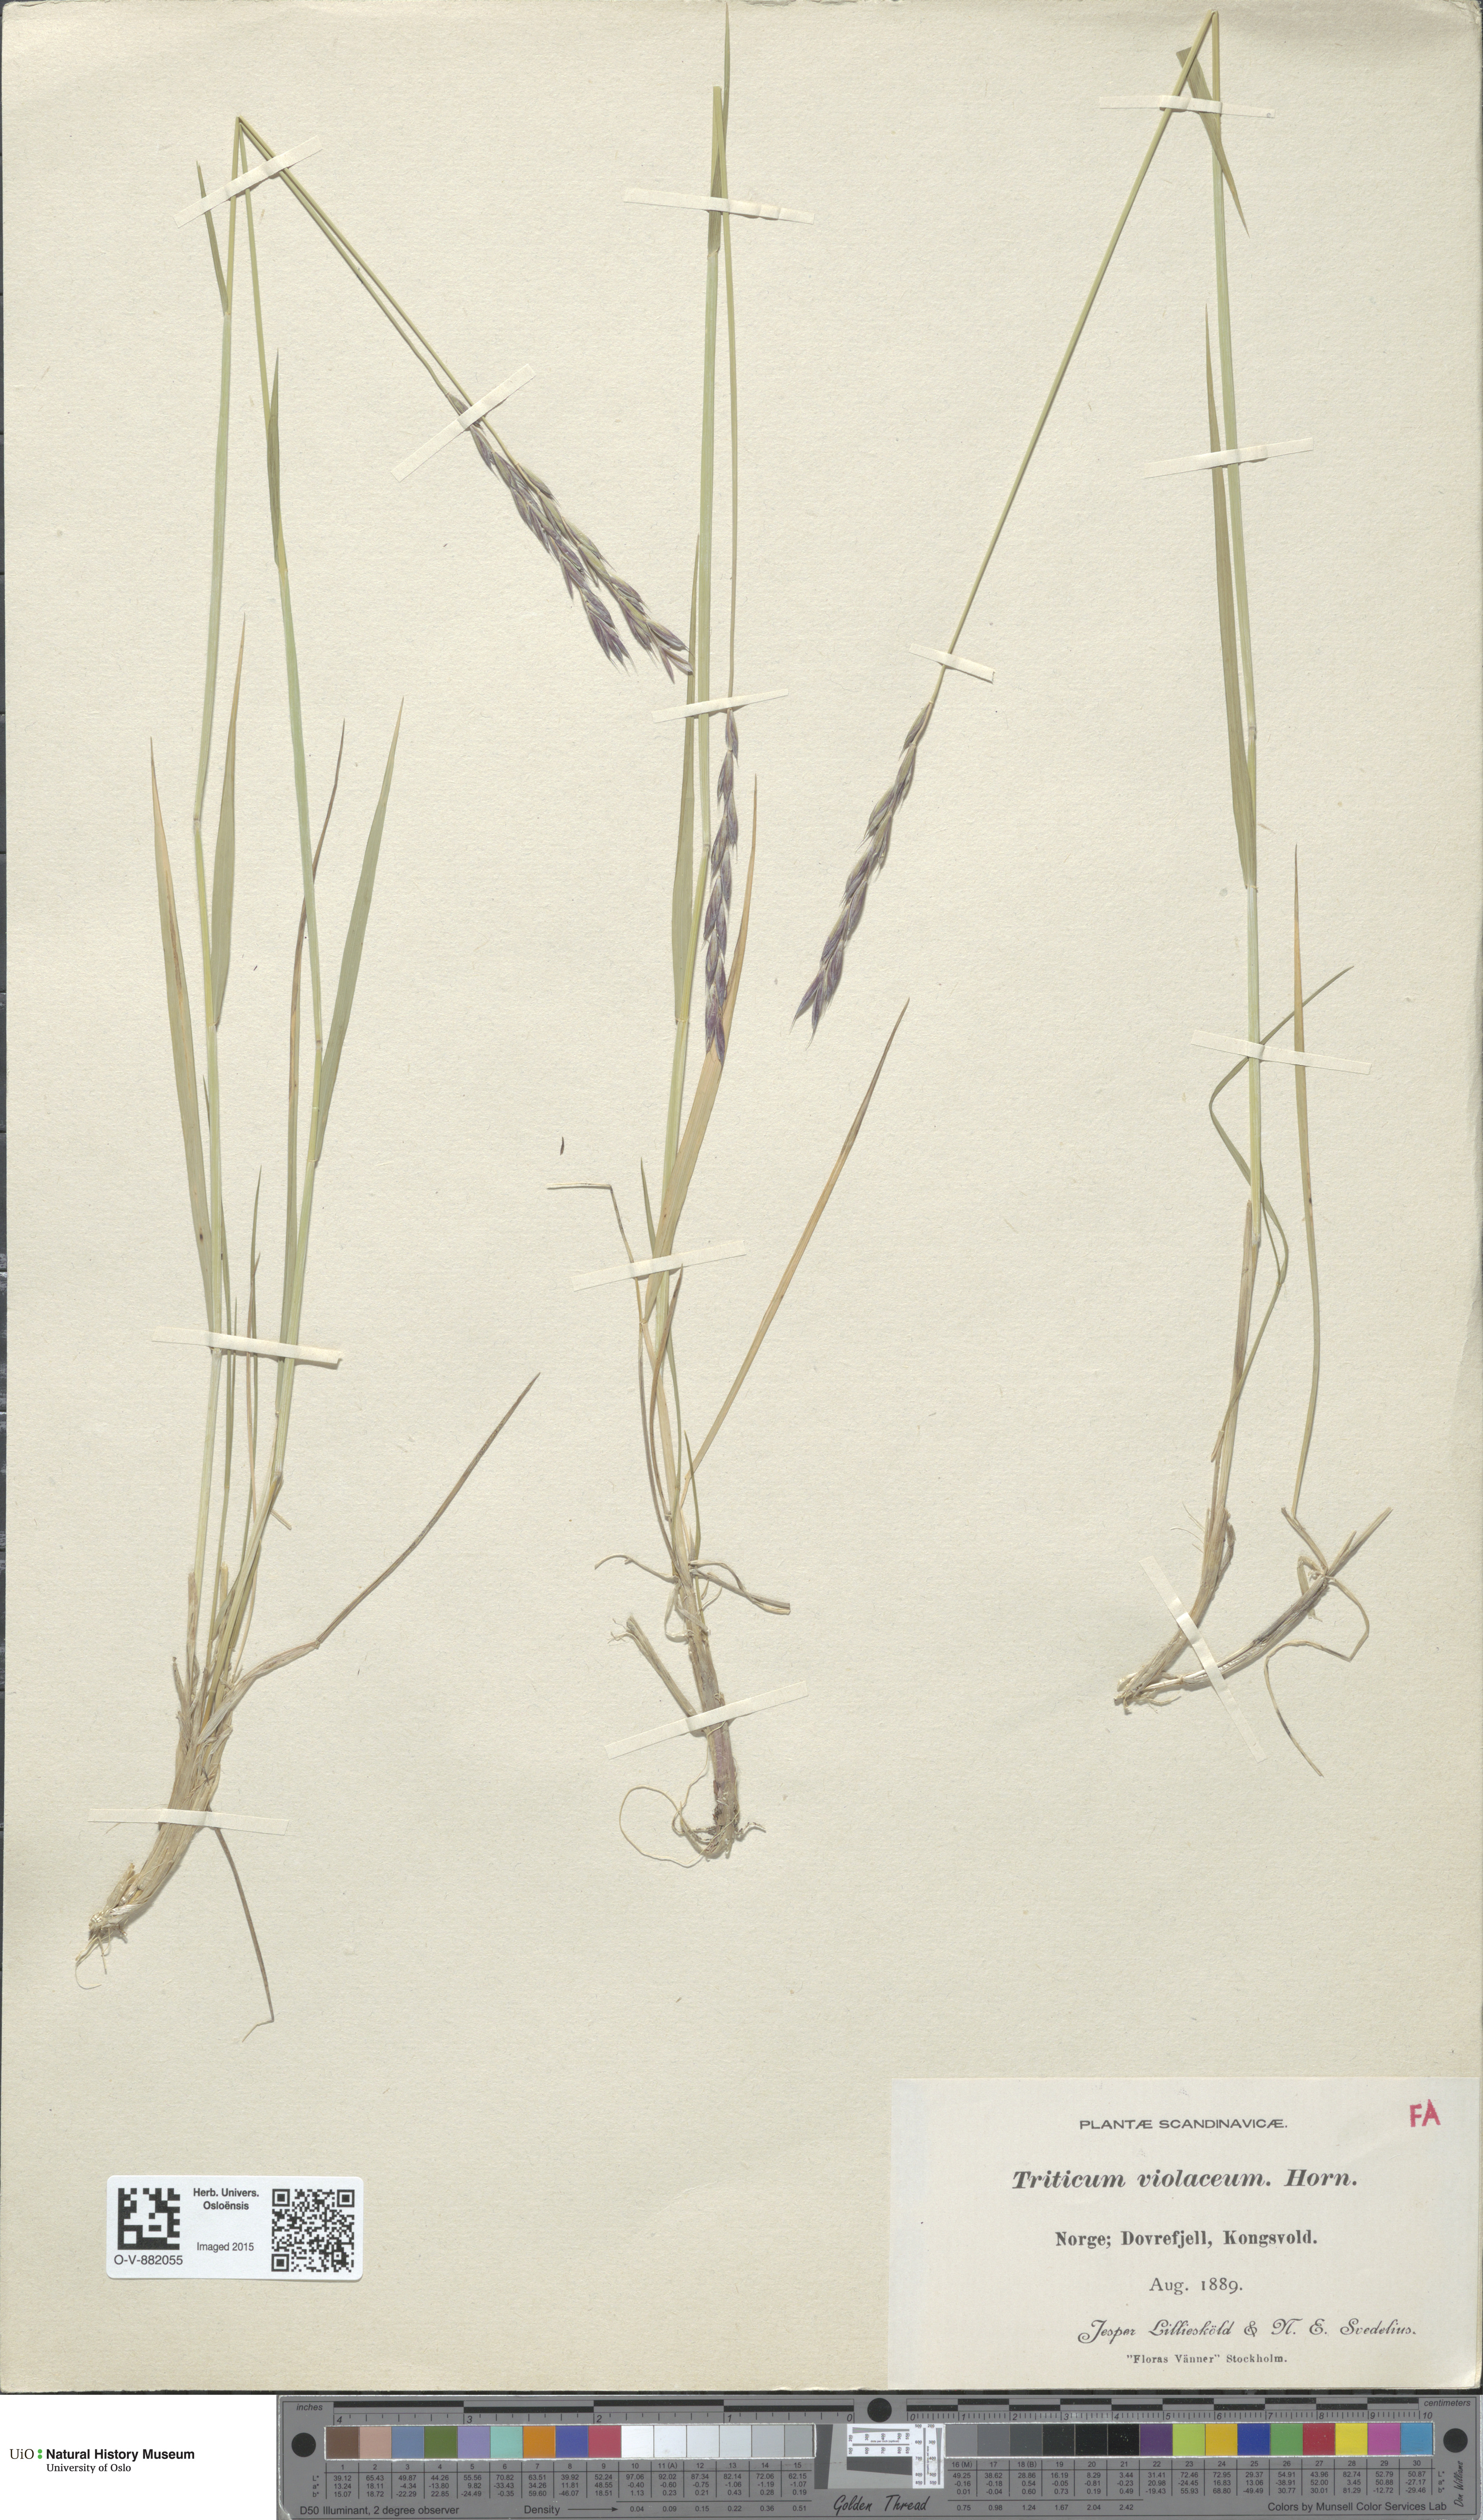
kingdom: Plantae
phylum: Tracheophyta
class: Liliopsida
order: Poales
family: Poaceae
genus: Elymus
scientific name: Elymus macrourus
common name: Northern wheatgrass
